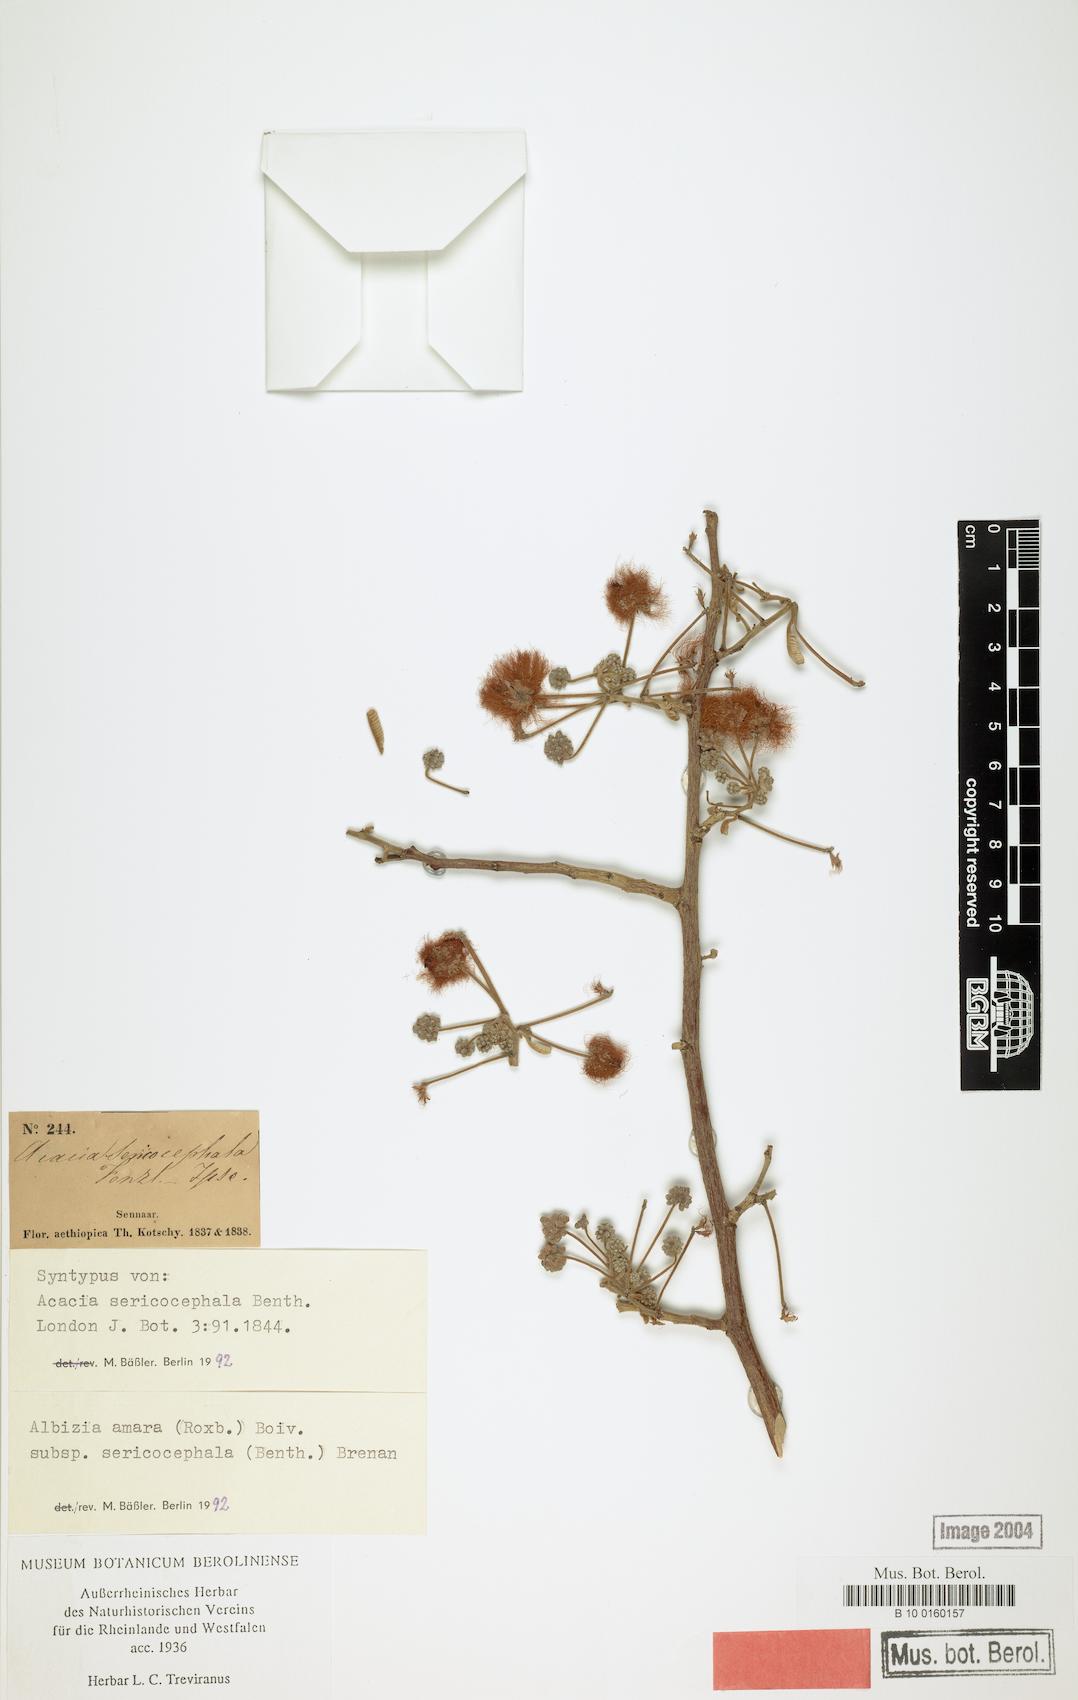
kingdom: Plantae
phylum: Tracheophyta
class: Magnoliopsida
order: Fabales
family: Fabaceae
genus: Albizia
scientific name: Albizia amara
